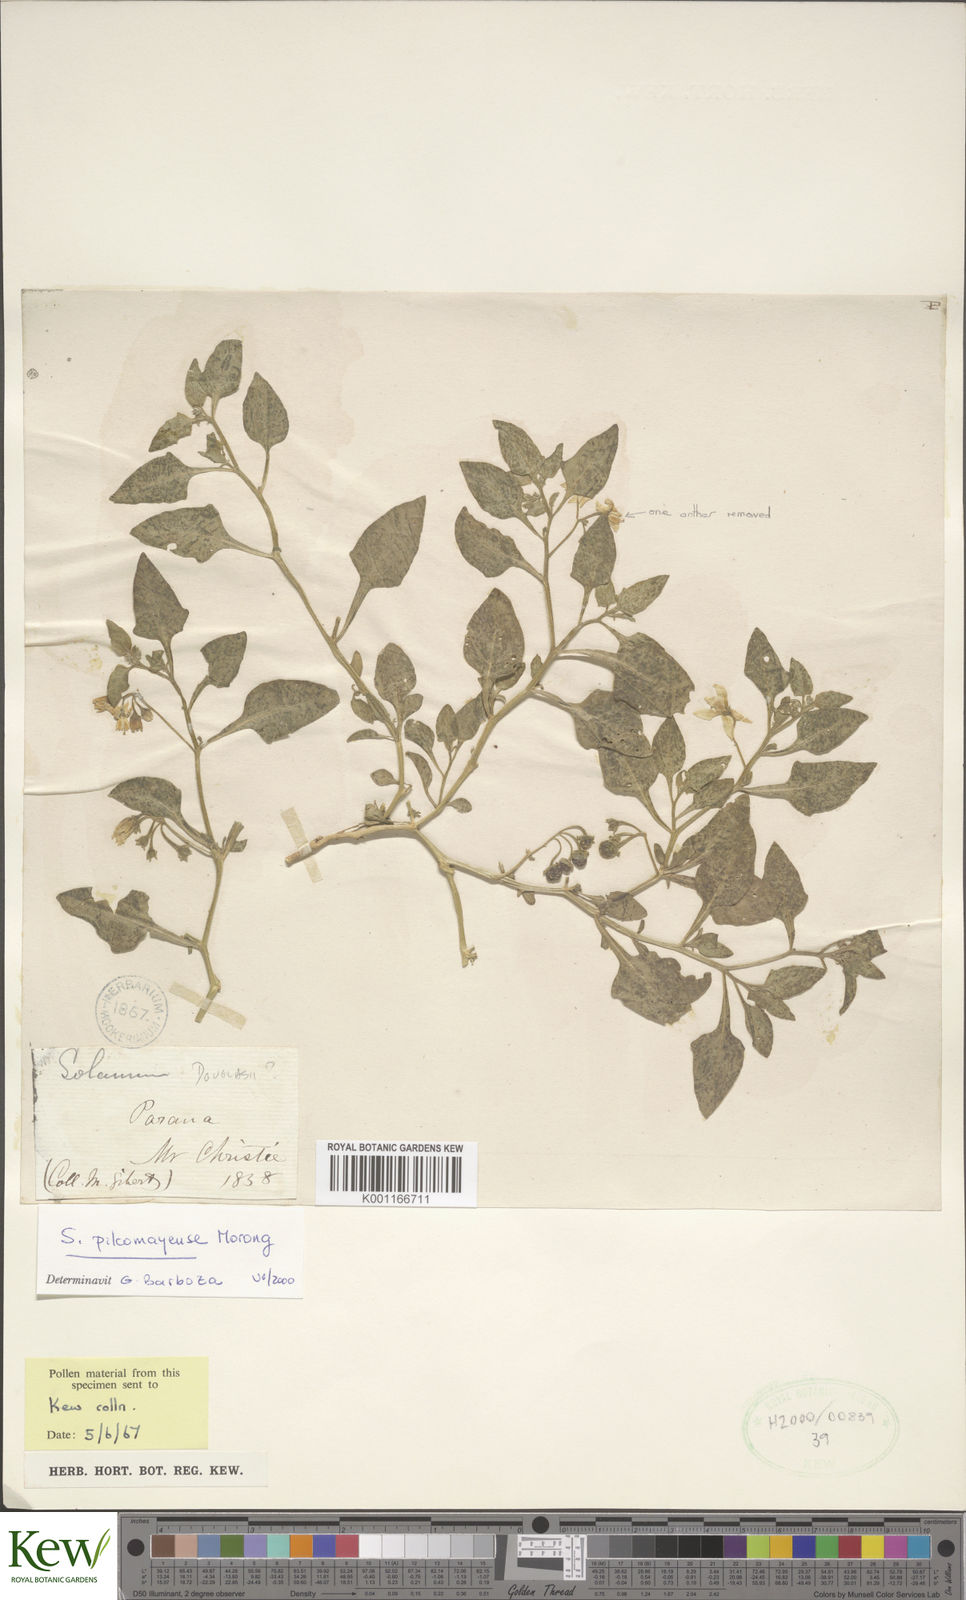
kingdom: Plantae
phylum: Tracheophyta
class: Magnoliopsida
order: Solanales
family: Solanaceae
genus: Solanum
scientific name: Solanum pilcomayense
